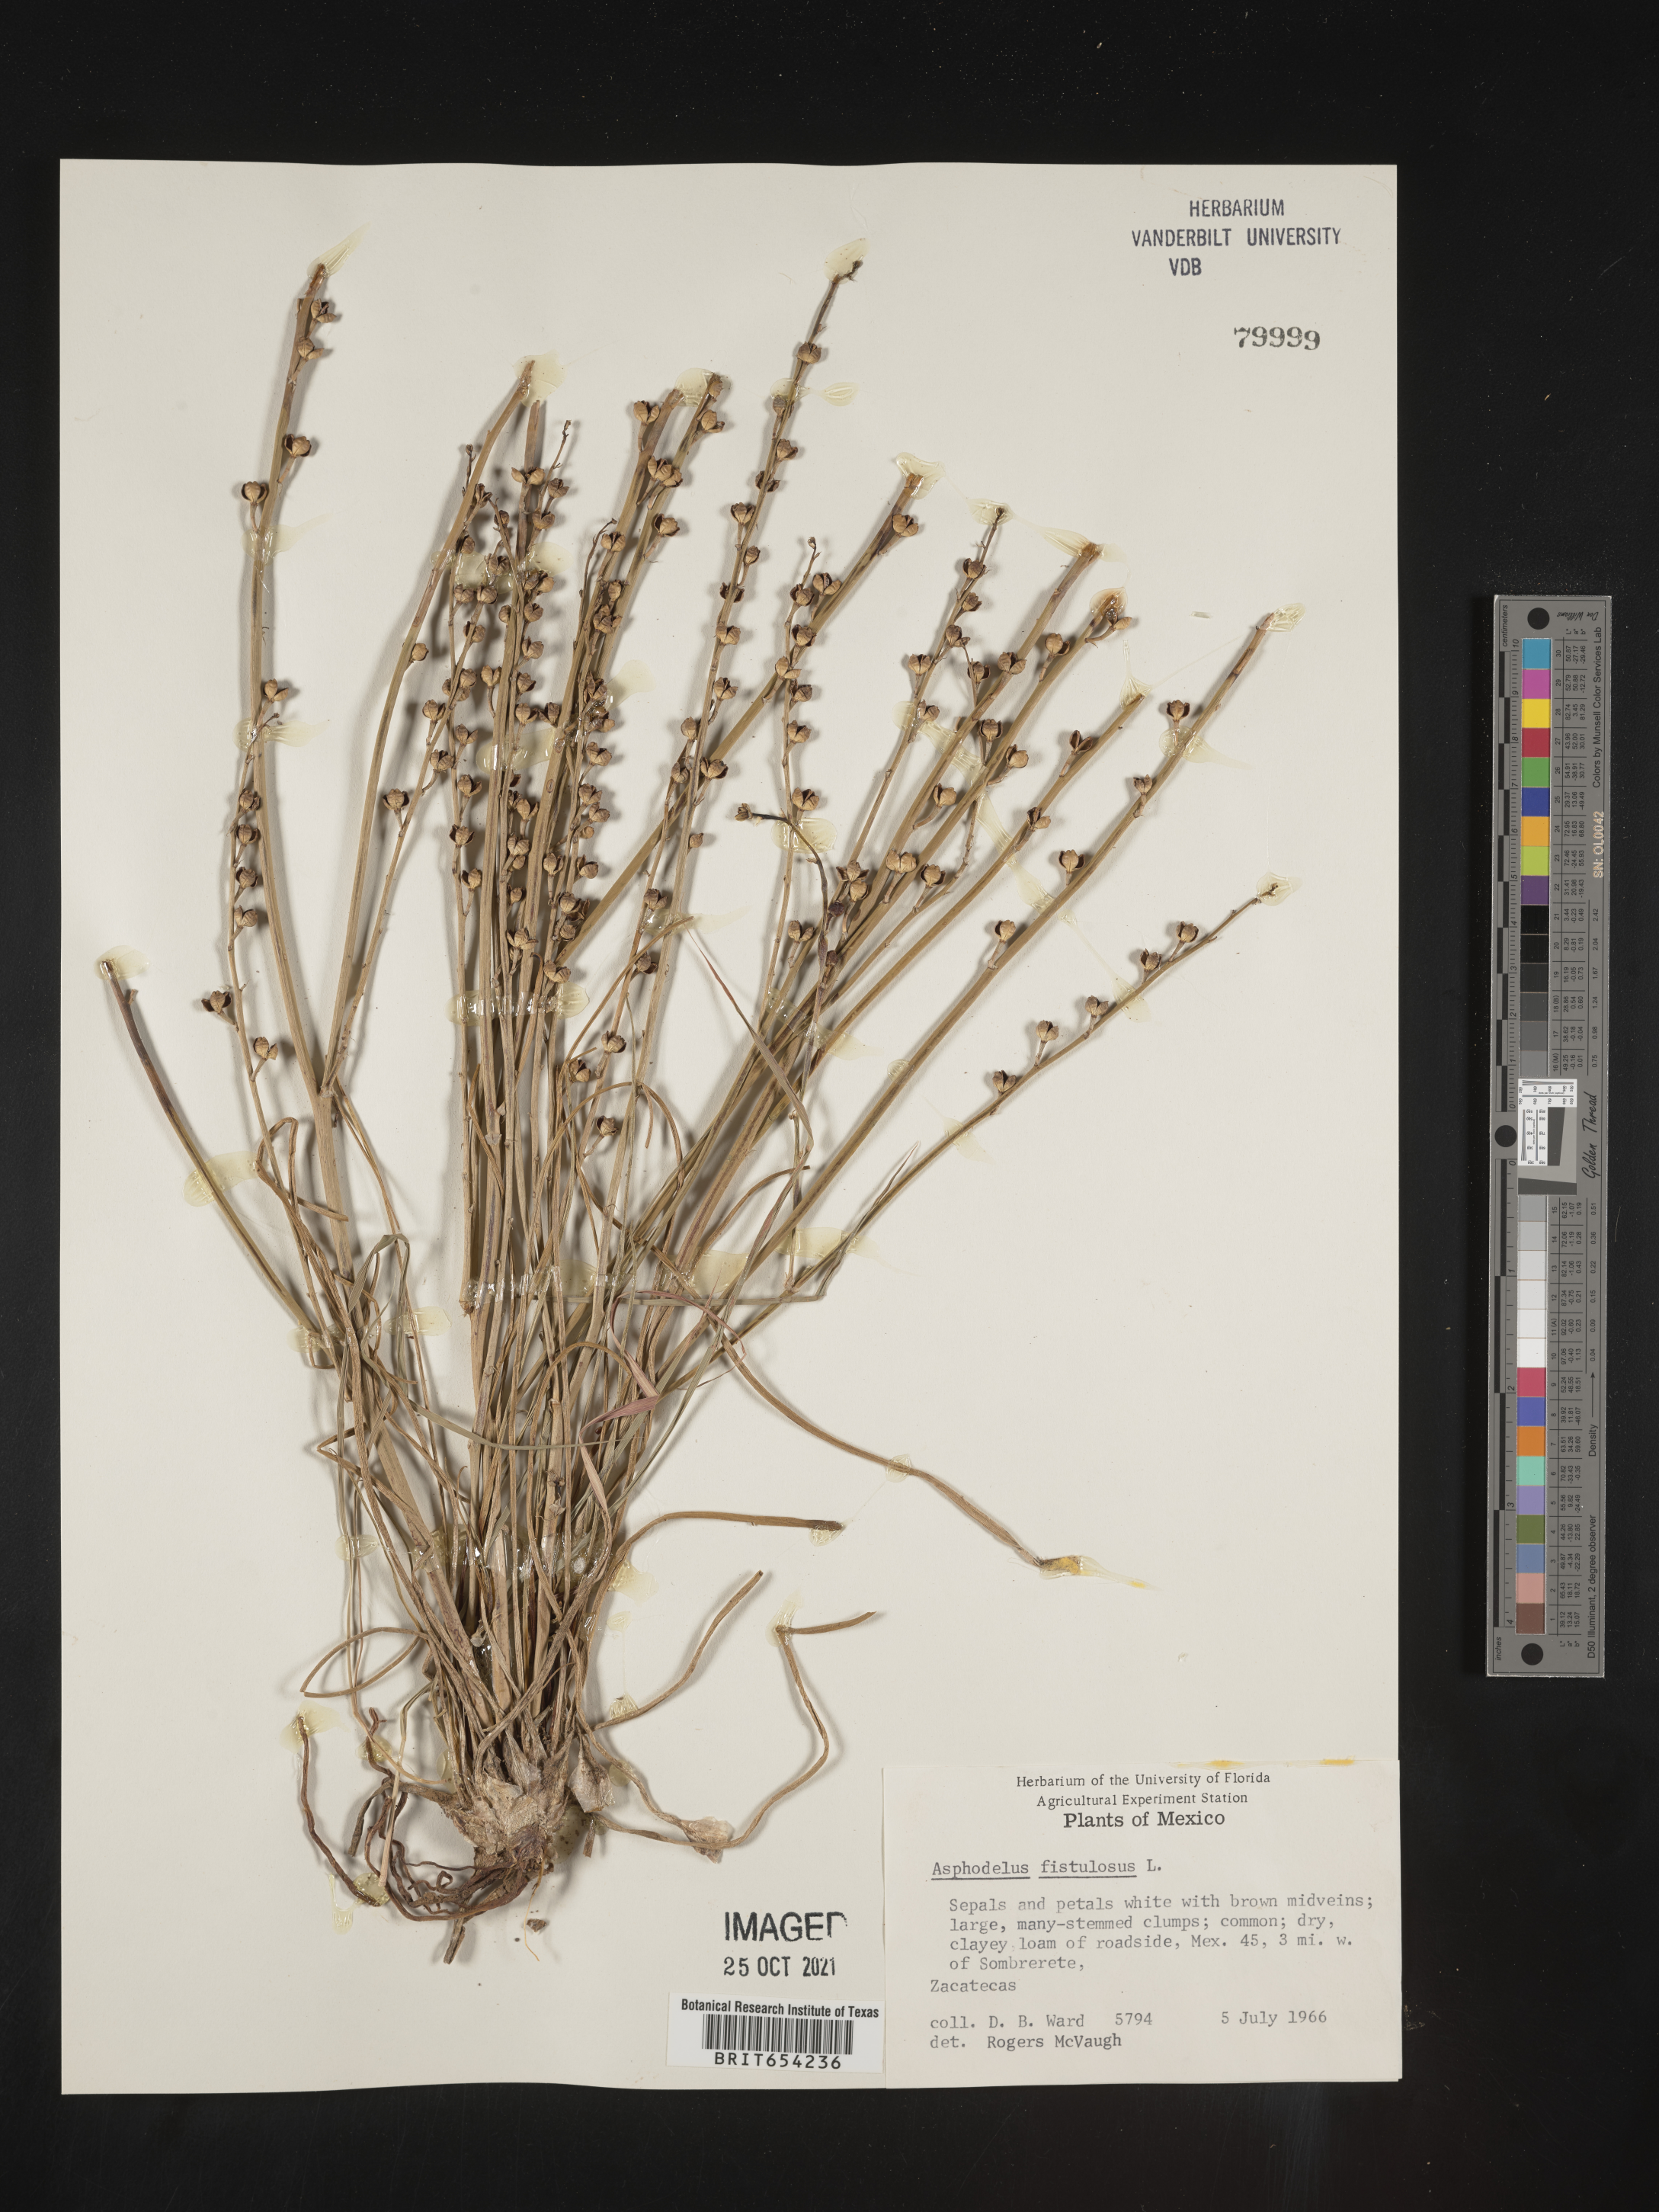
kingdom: Plantae
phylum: Tracheophyta
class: Liliopsida
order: Asparagales
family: Asphodelaceae
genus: Asphodelus
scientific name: Asphodelus
